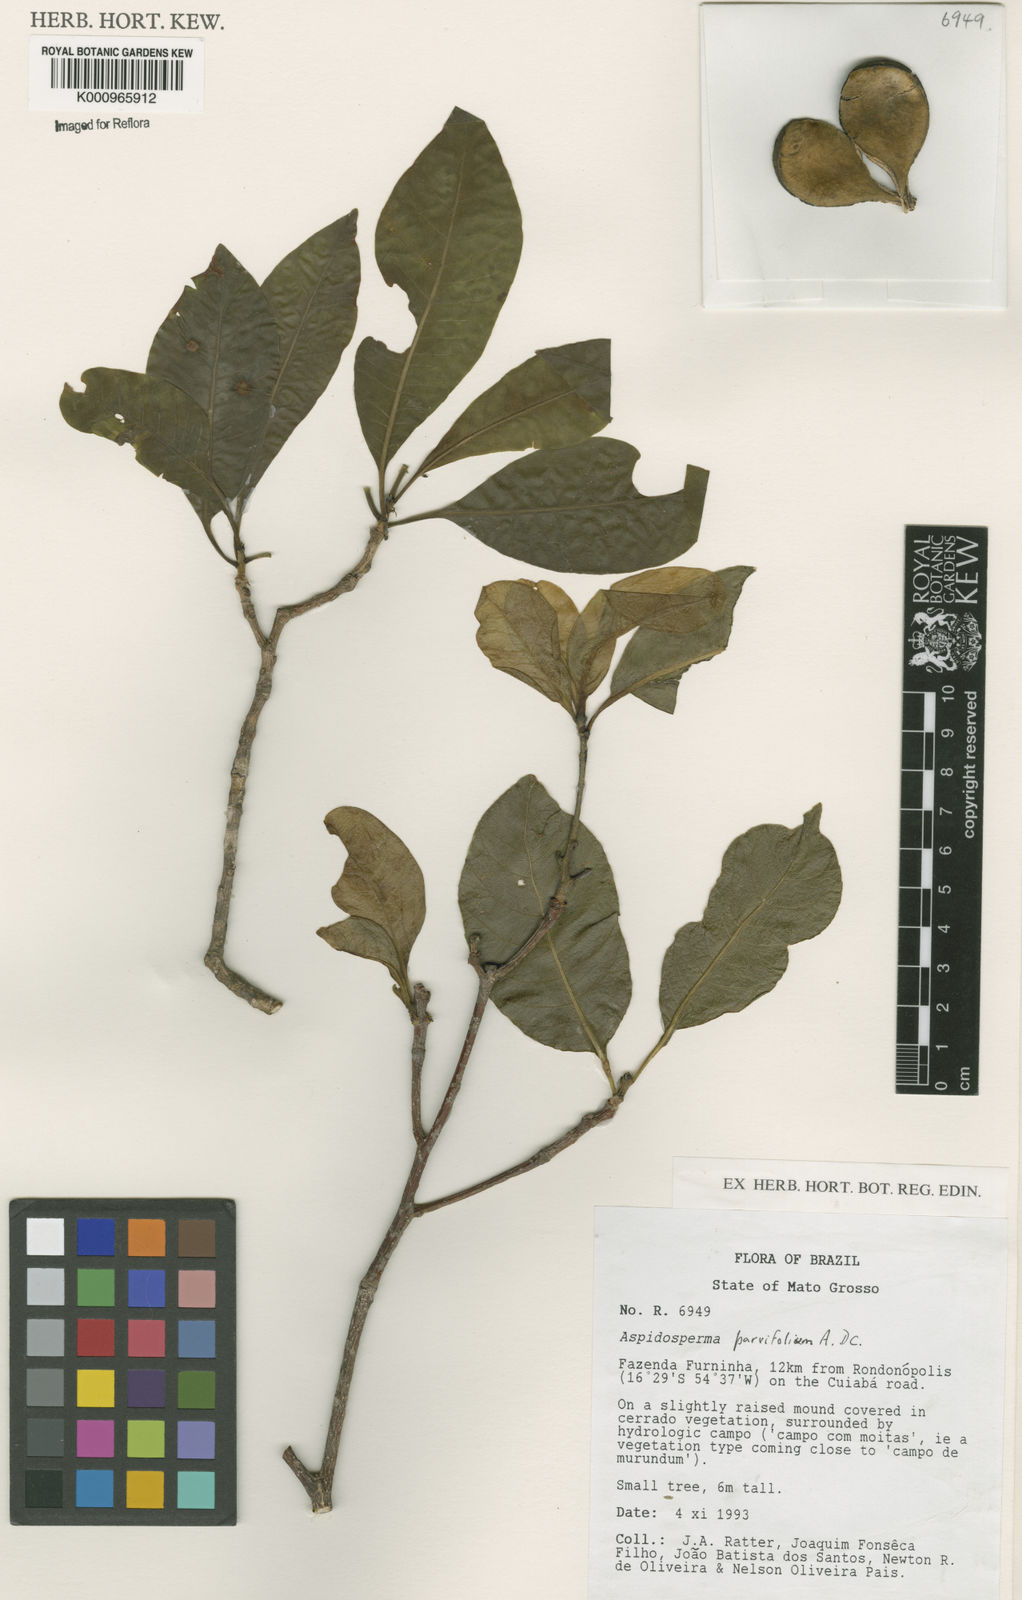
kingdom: Plantae
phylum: Tracheophyta
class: Magnoliopsida
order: Gentianales
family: Apocynaceae
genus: Aspidosperma
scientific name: Aspidosperma
